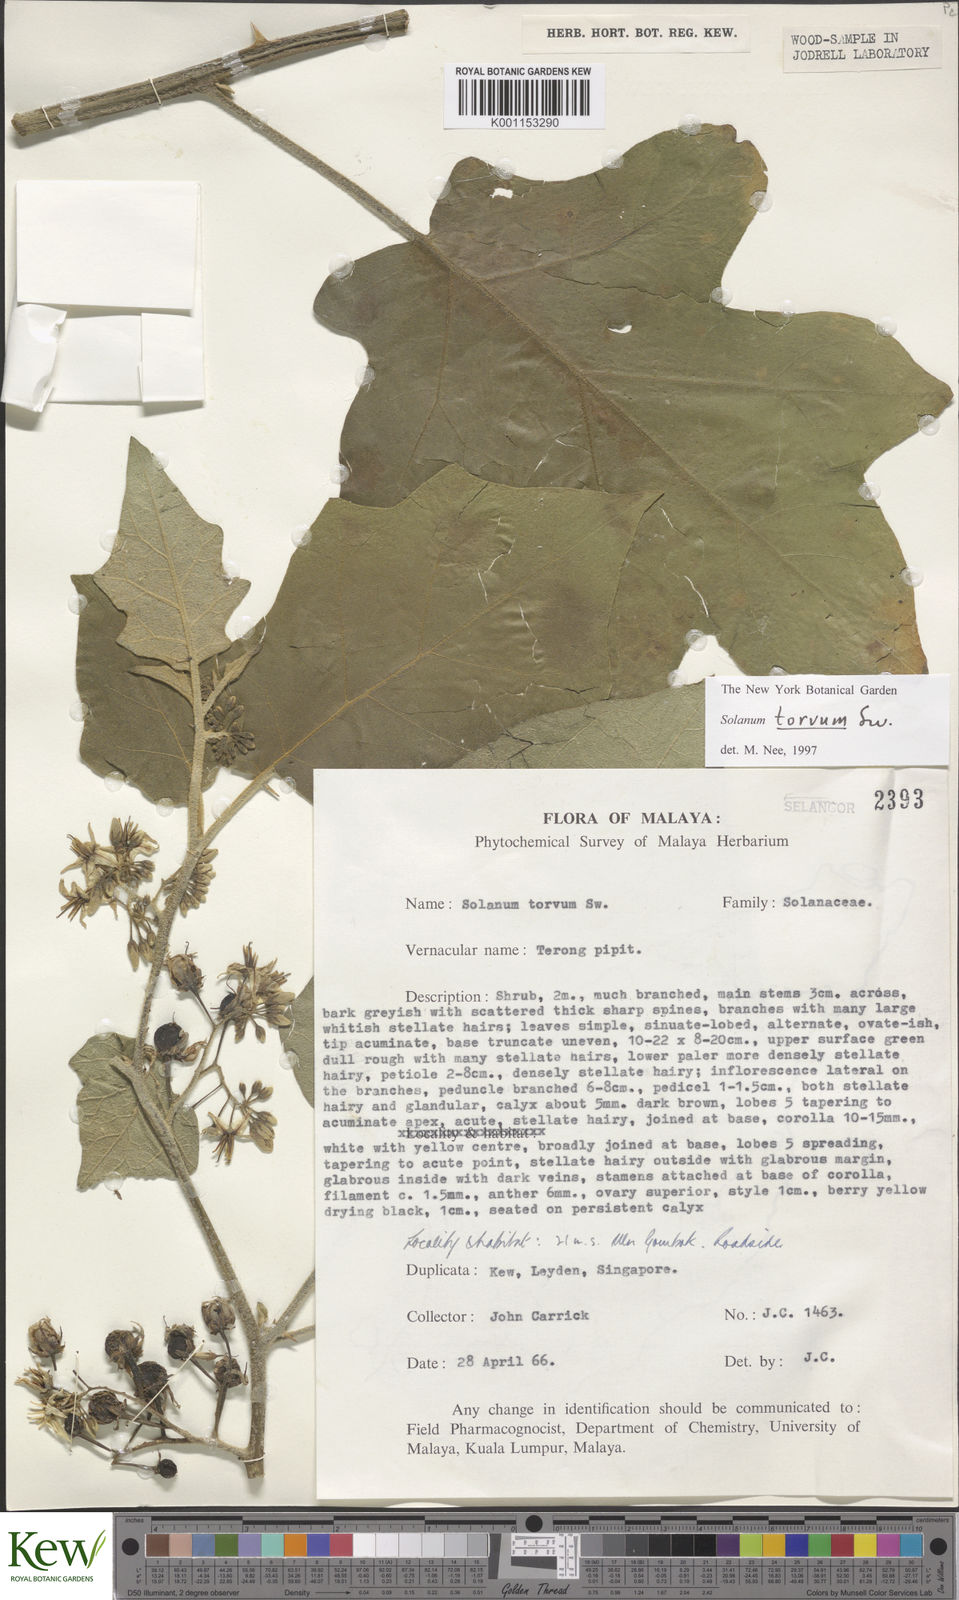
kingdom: Plantae
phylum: Tracheophyta
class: Magnoliopsida
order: Solanales
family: Solanaceae
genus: Solanum
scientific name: Solanum torvum
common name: Turkey berry
